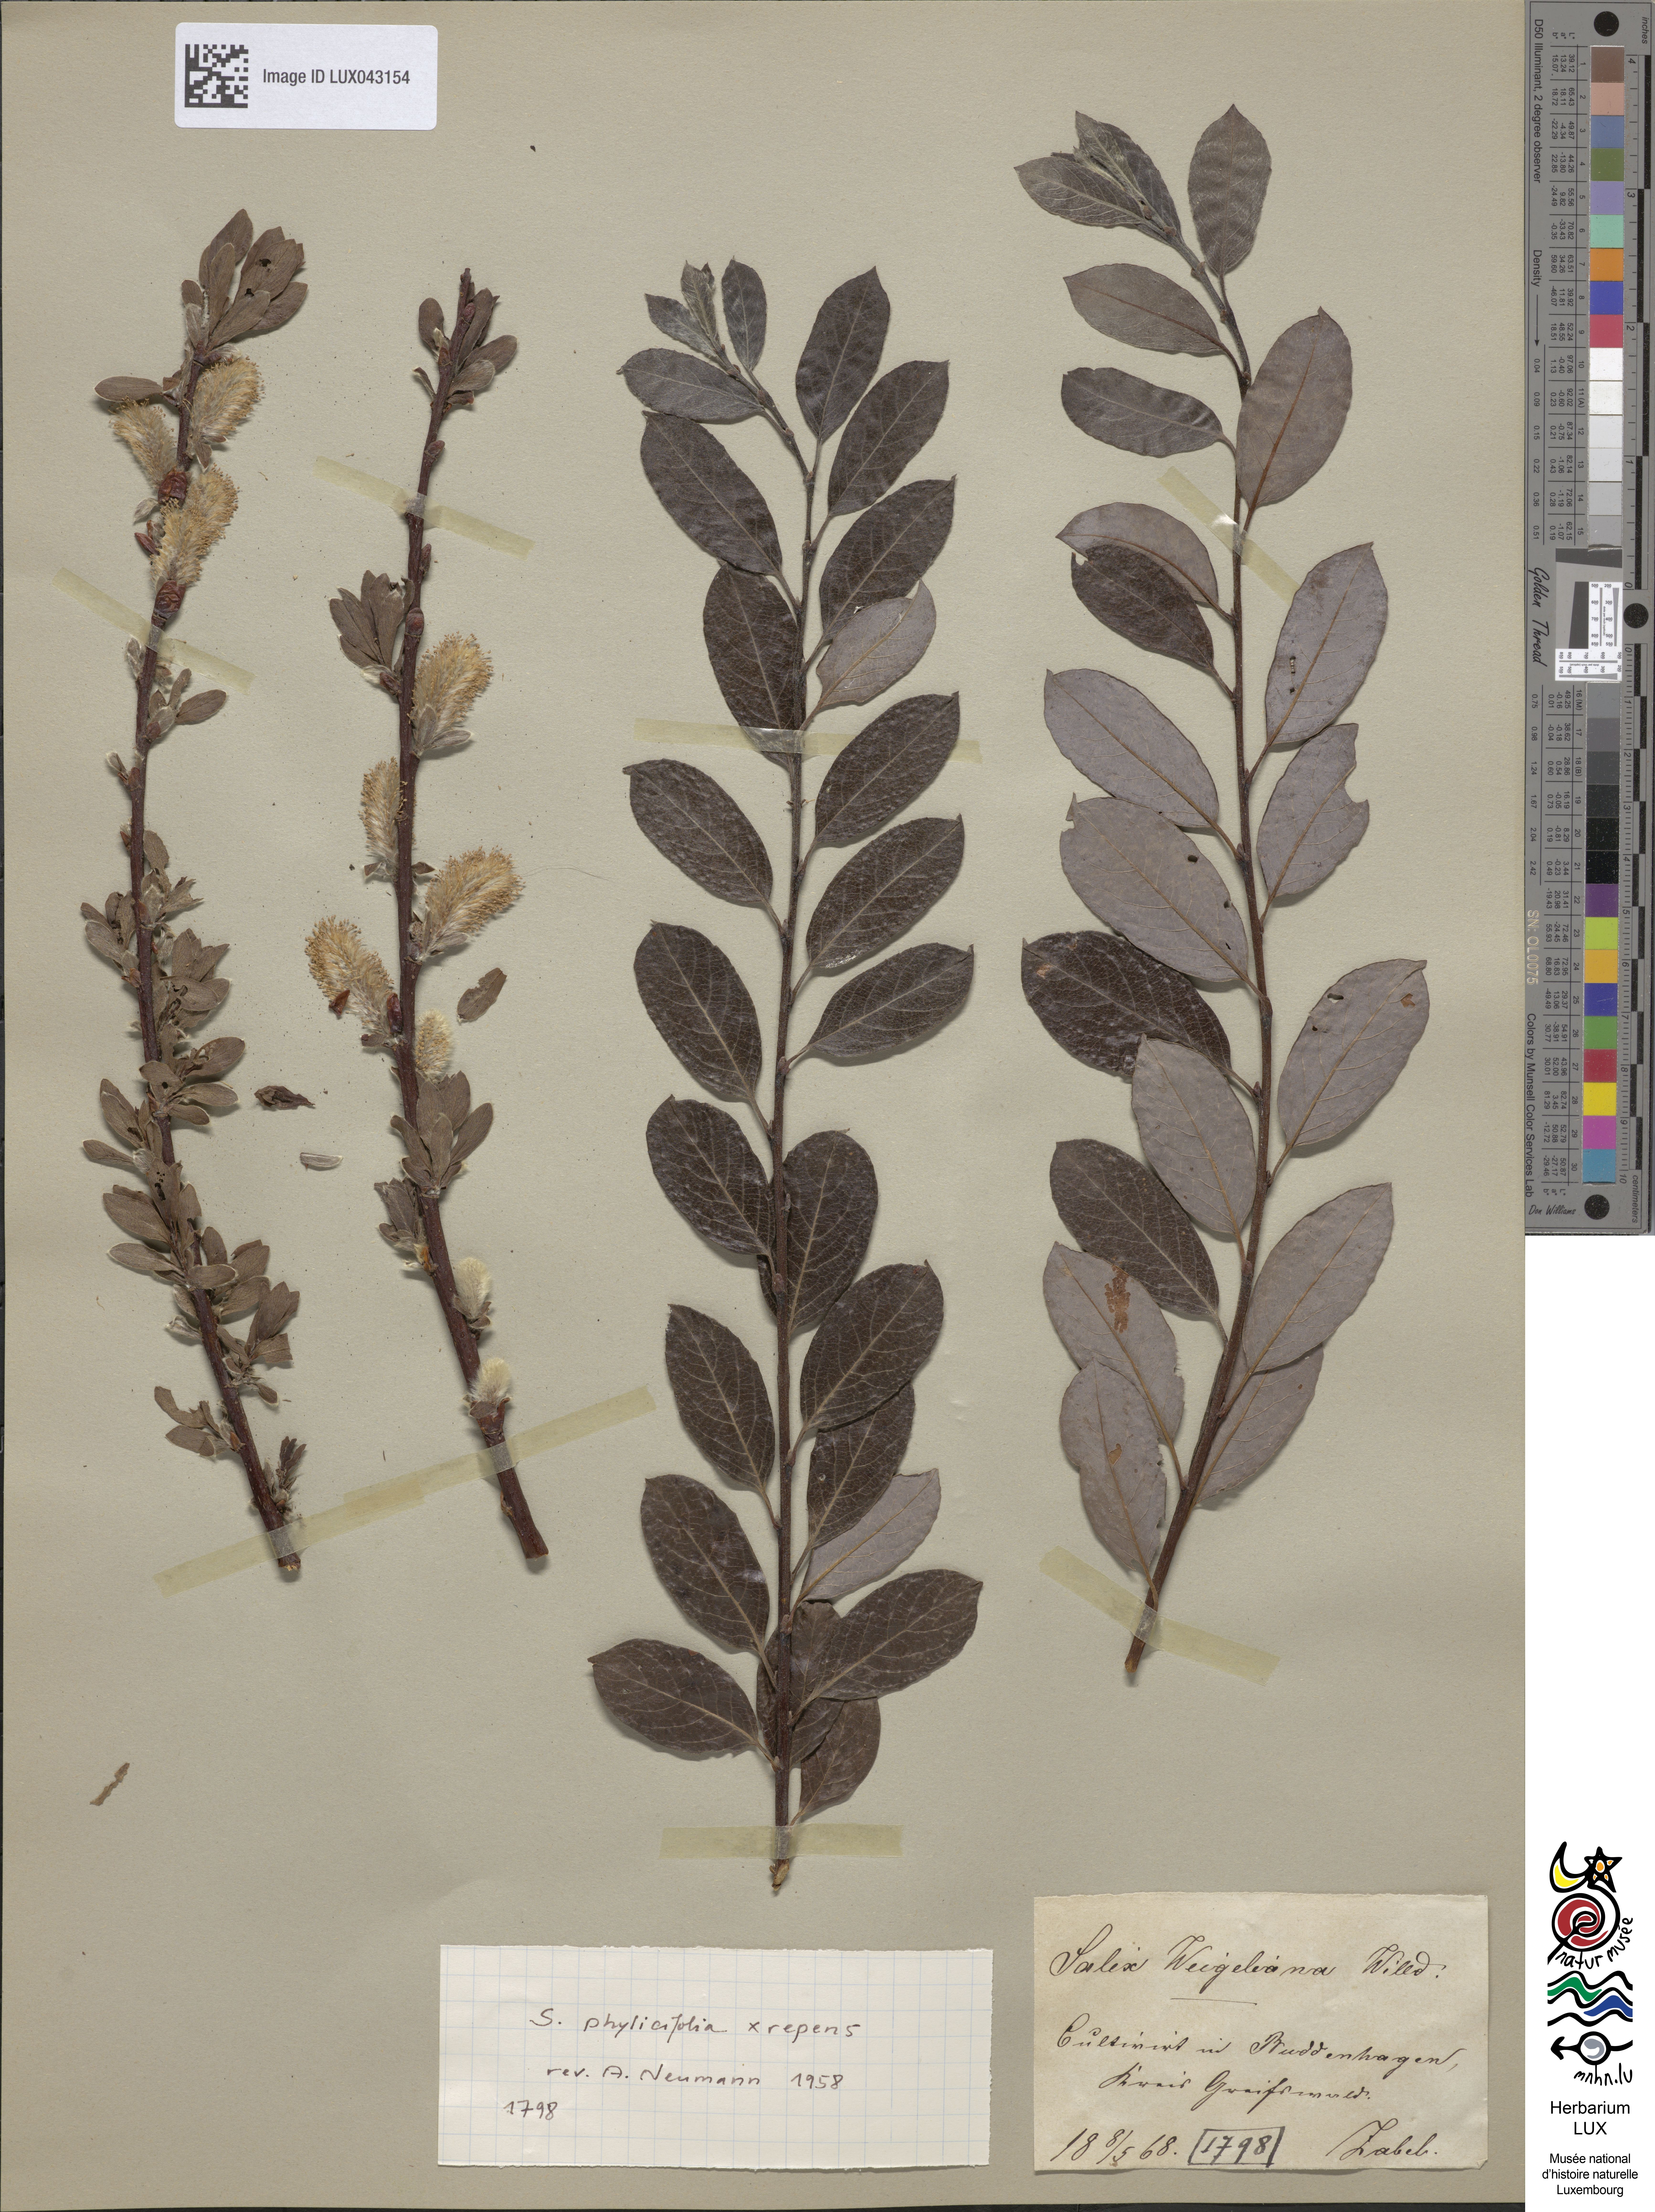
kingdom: Plantae
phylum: Tracheophyta
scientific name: Tracheophyta
